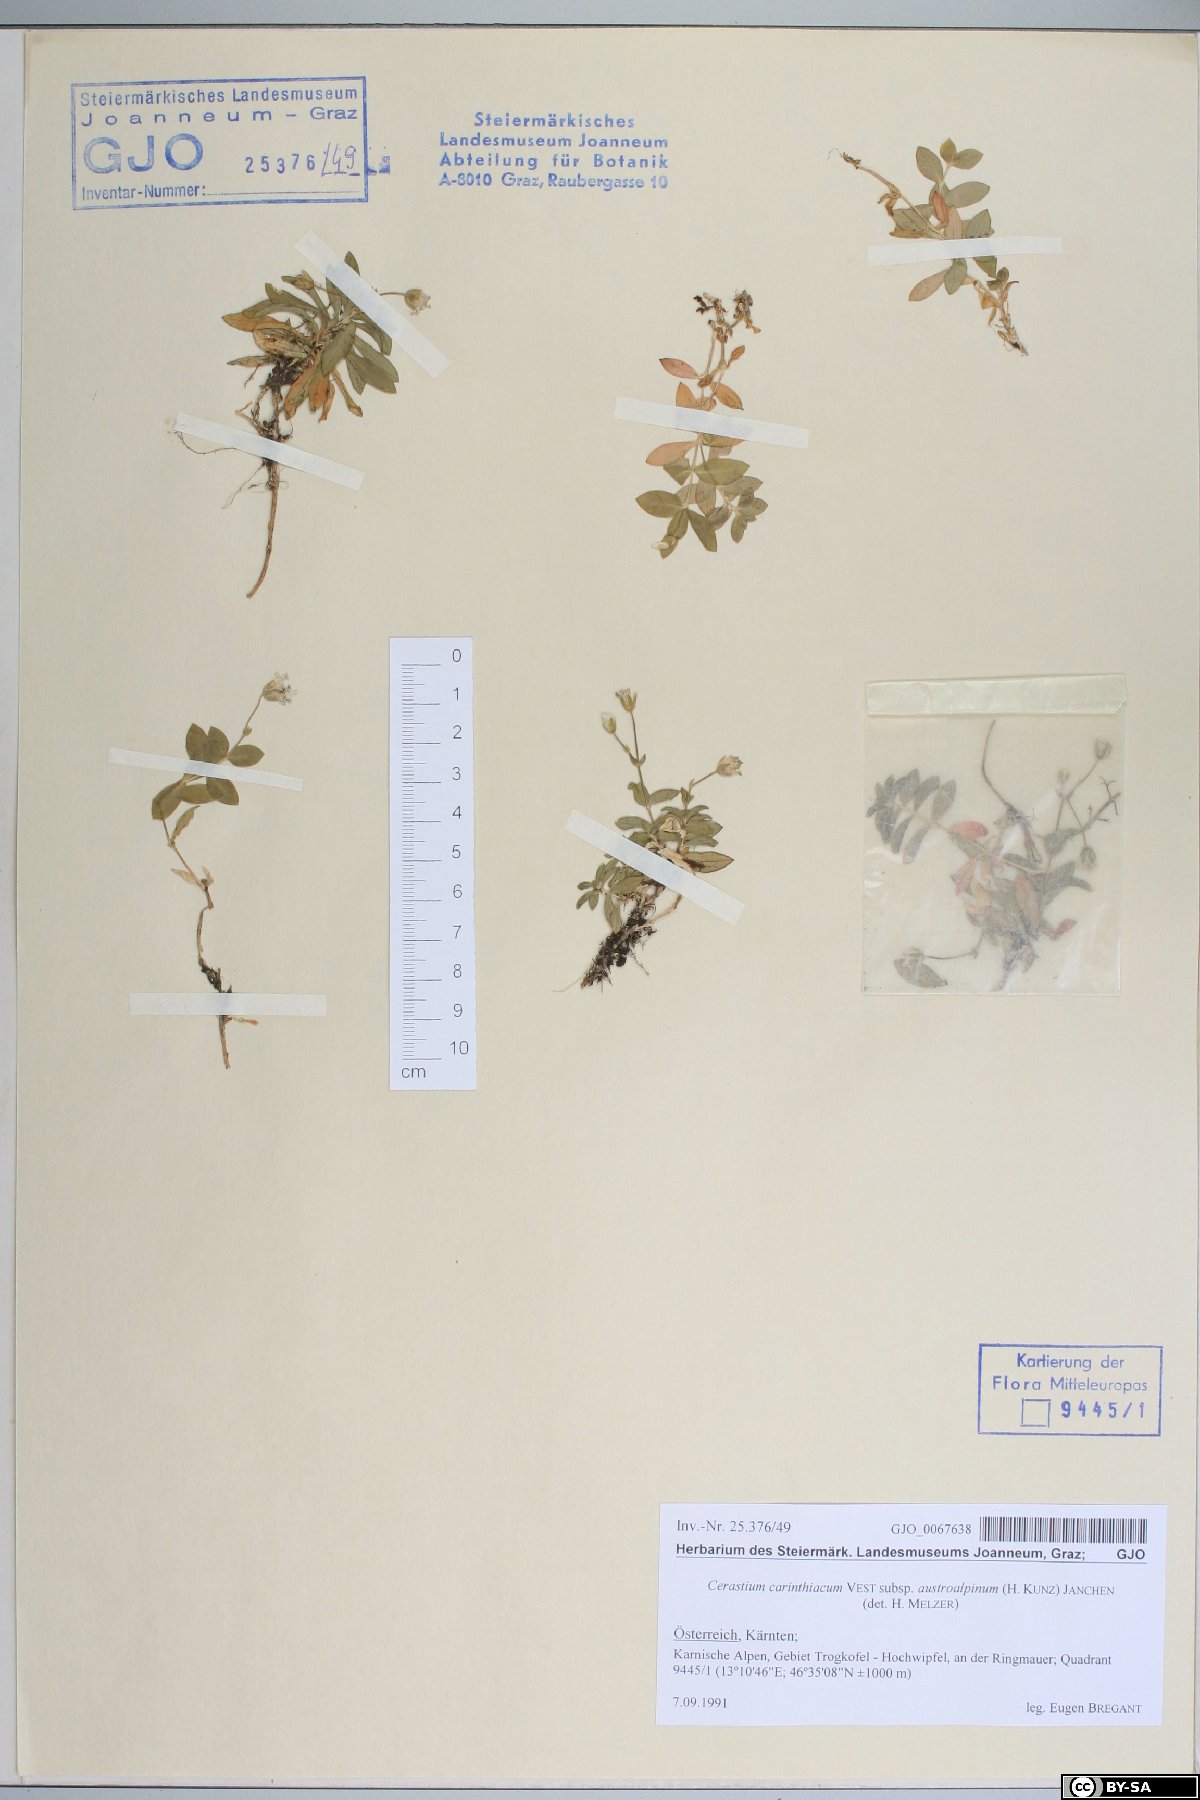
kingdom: Plantae
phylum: Tracheophyta
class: Magnoliopsida
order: Caryophyllales
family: Caryophyllaceae
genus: Cerastium
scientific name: Cerastium carinthiacum
